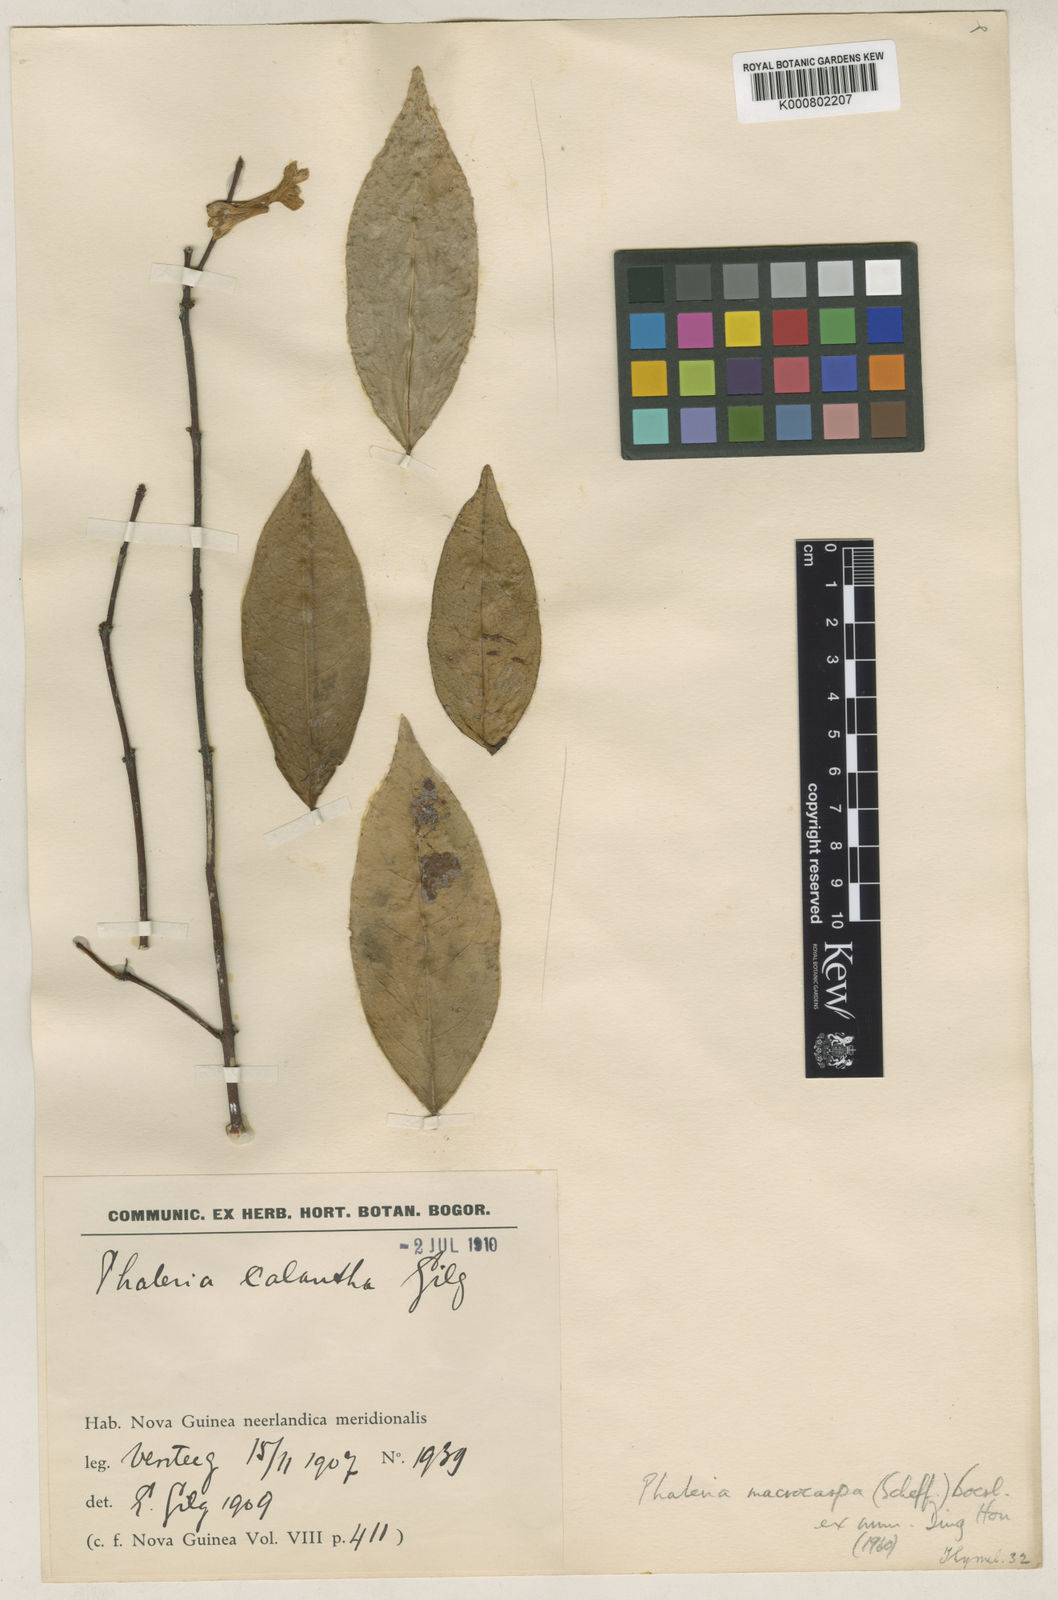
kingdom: Plantae
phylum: Tracheophyta
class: Magnoliopsida
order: Malvales
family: Thymelaeaceae
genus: Phaleria
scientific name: Phaleria macrocarpa
